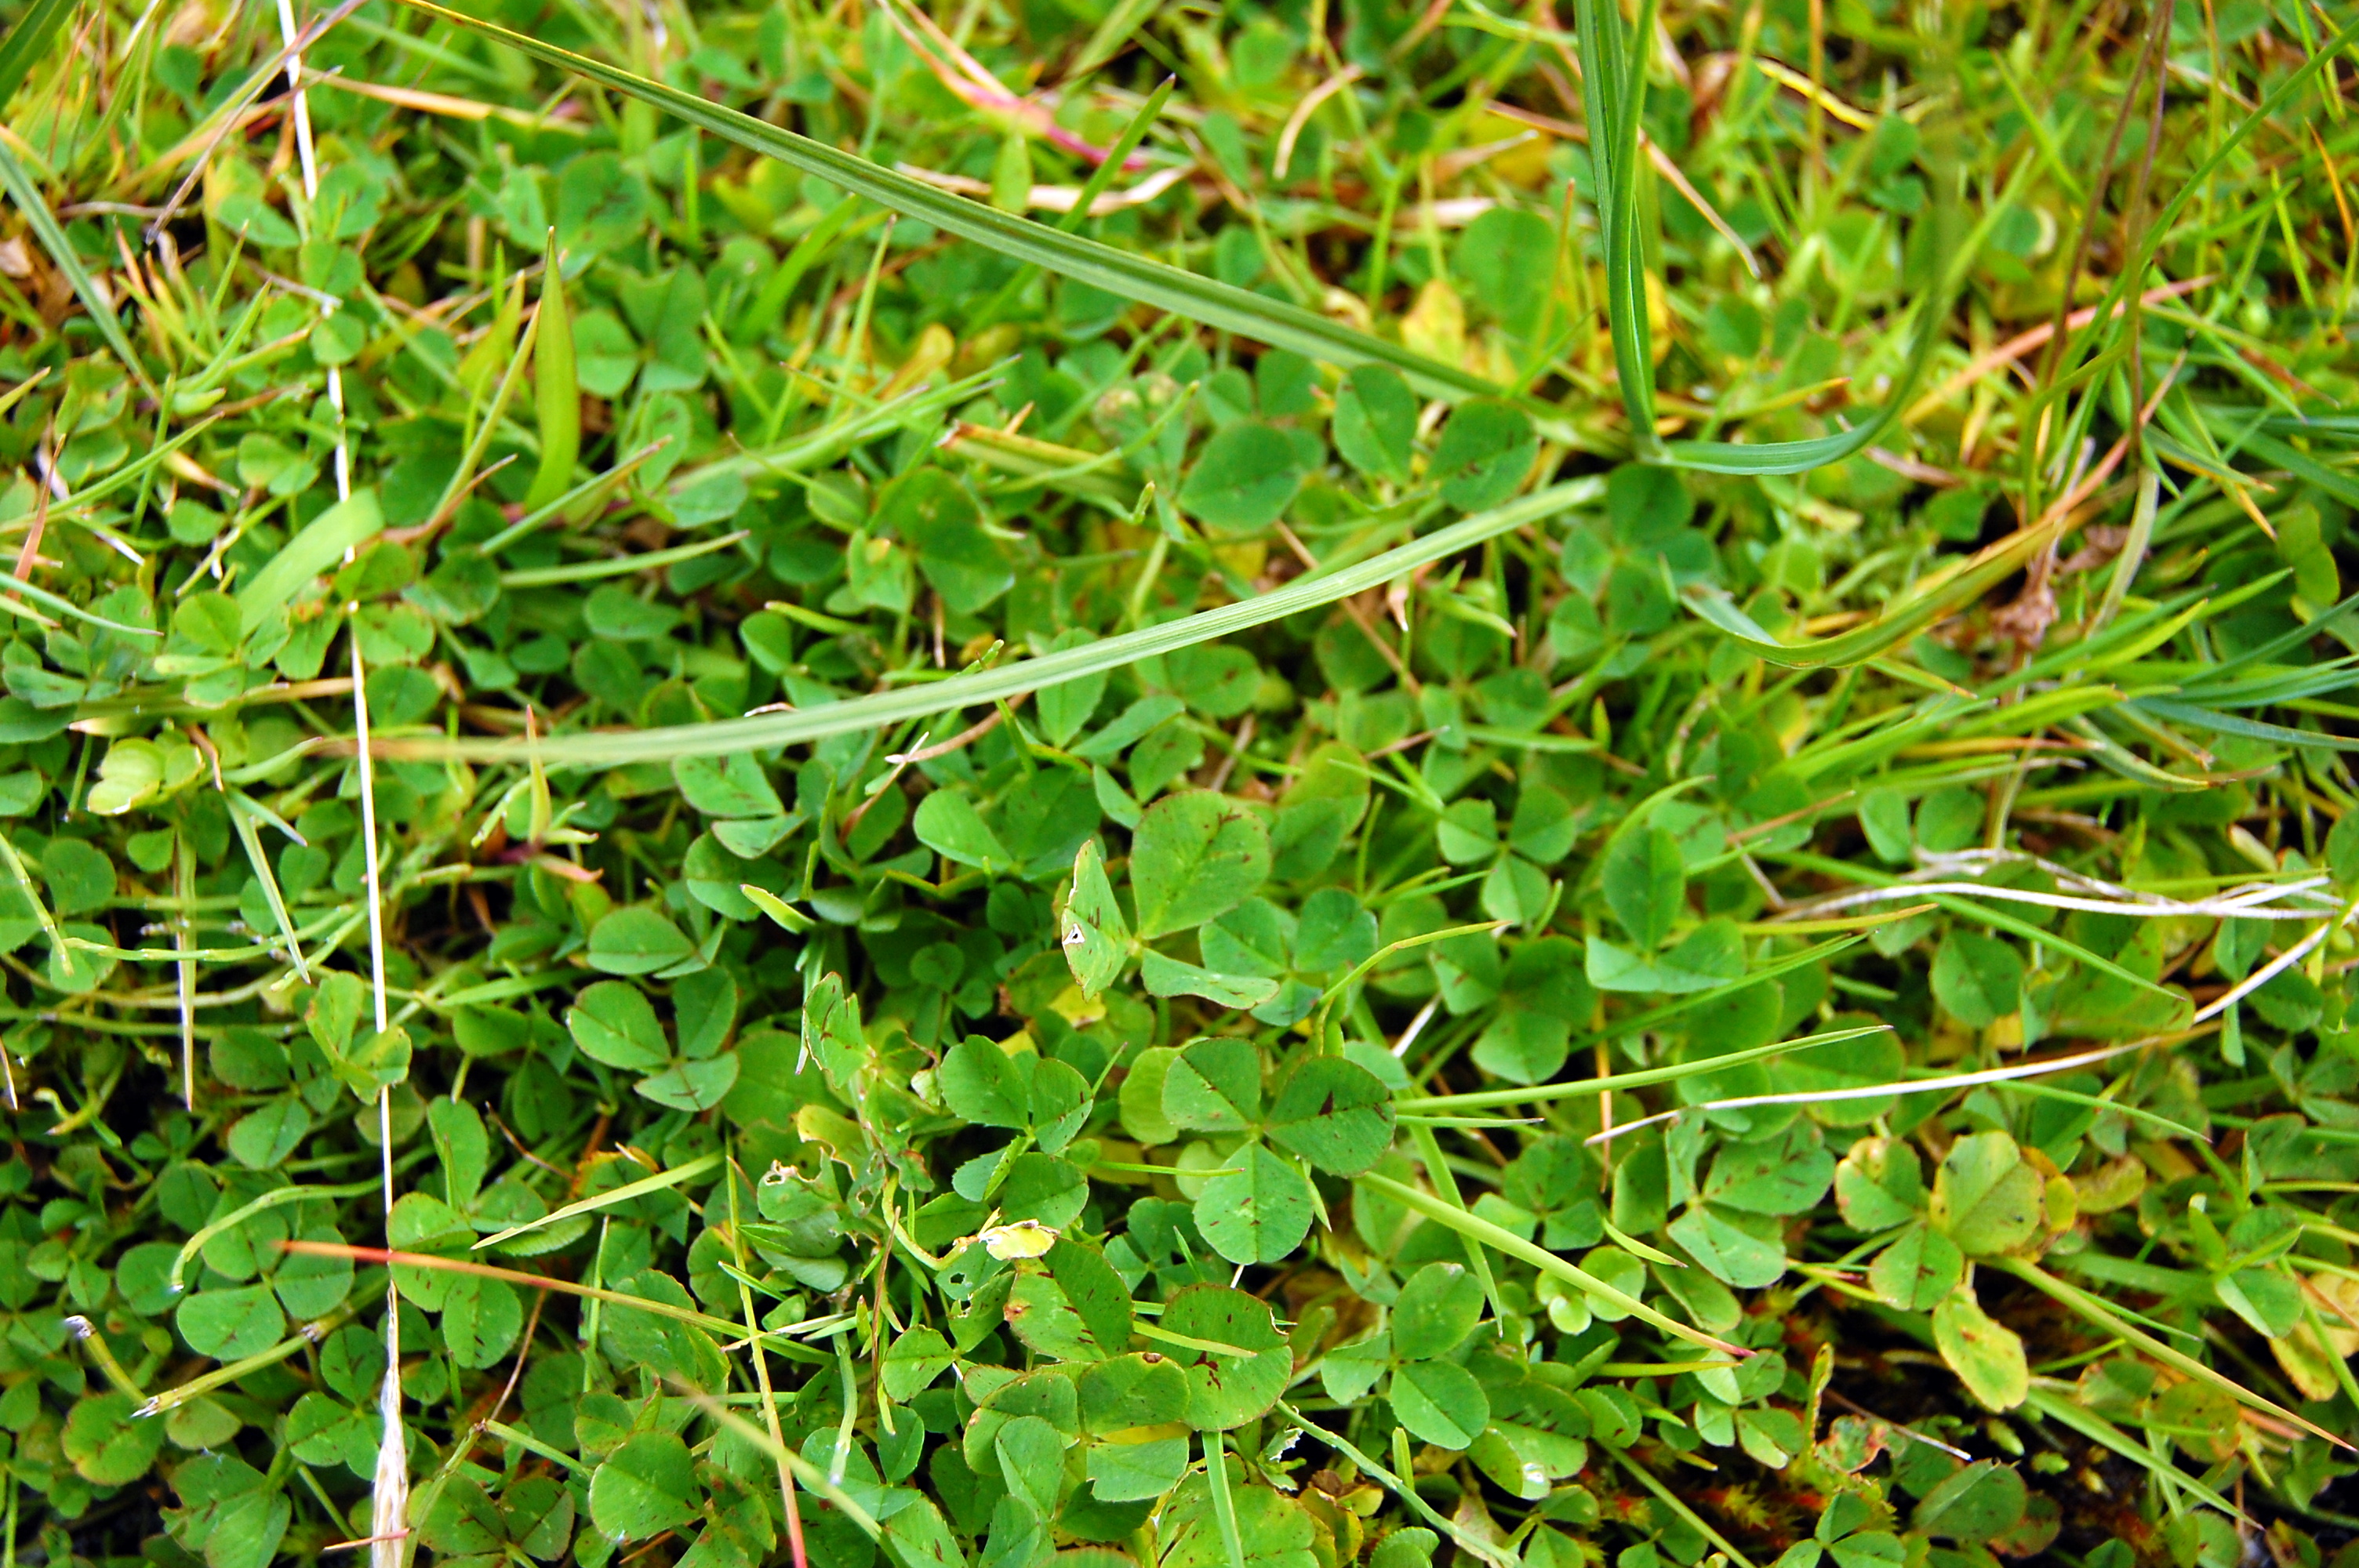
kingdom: Plantae
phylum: Tracheophyta
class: Magnoliopsida
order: Fabales
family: Fabaceae
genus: Trifolium
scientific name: Trifolium repens
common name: White clover
